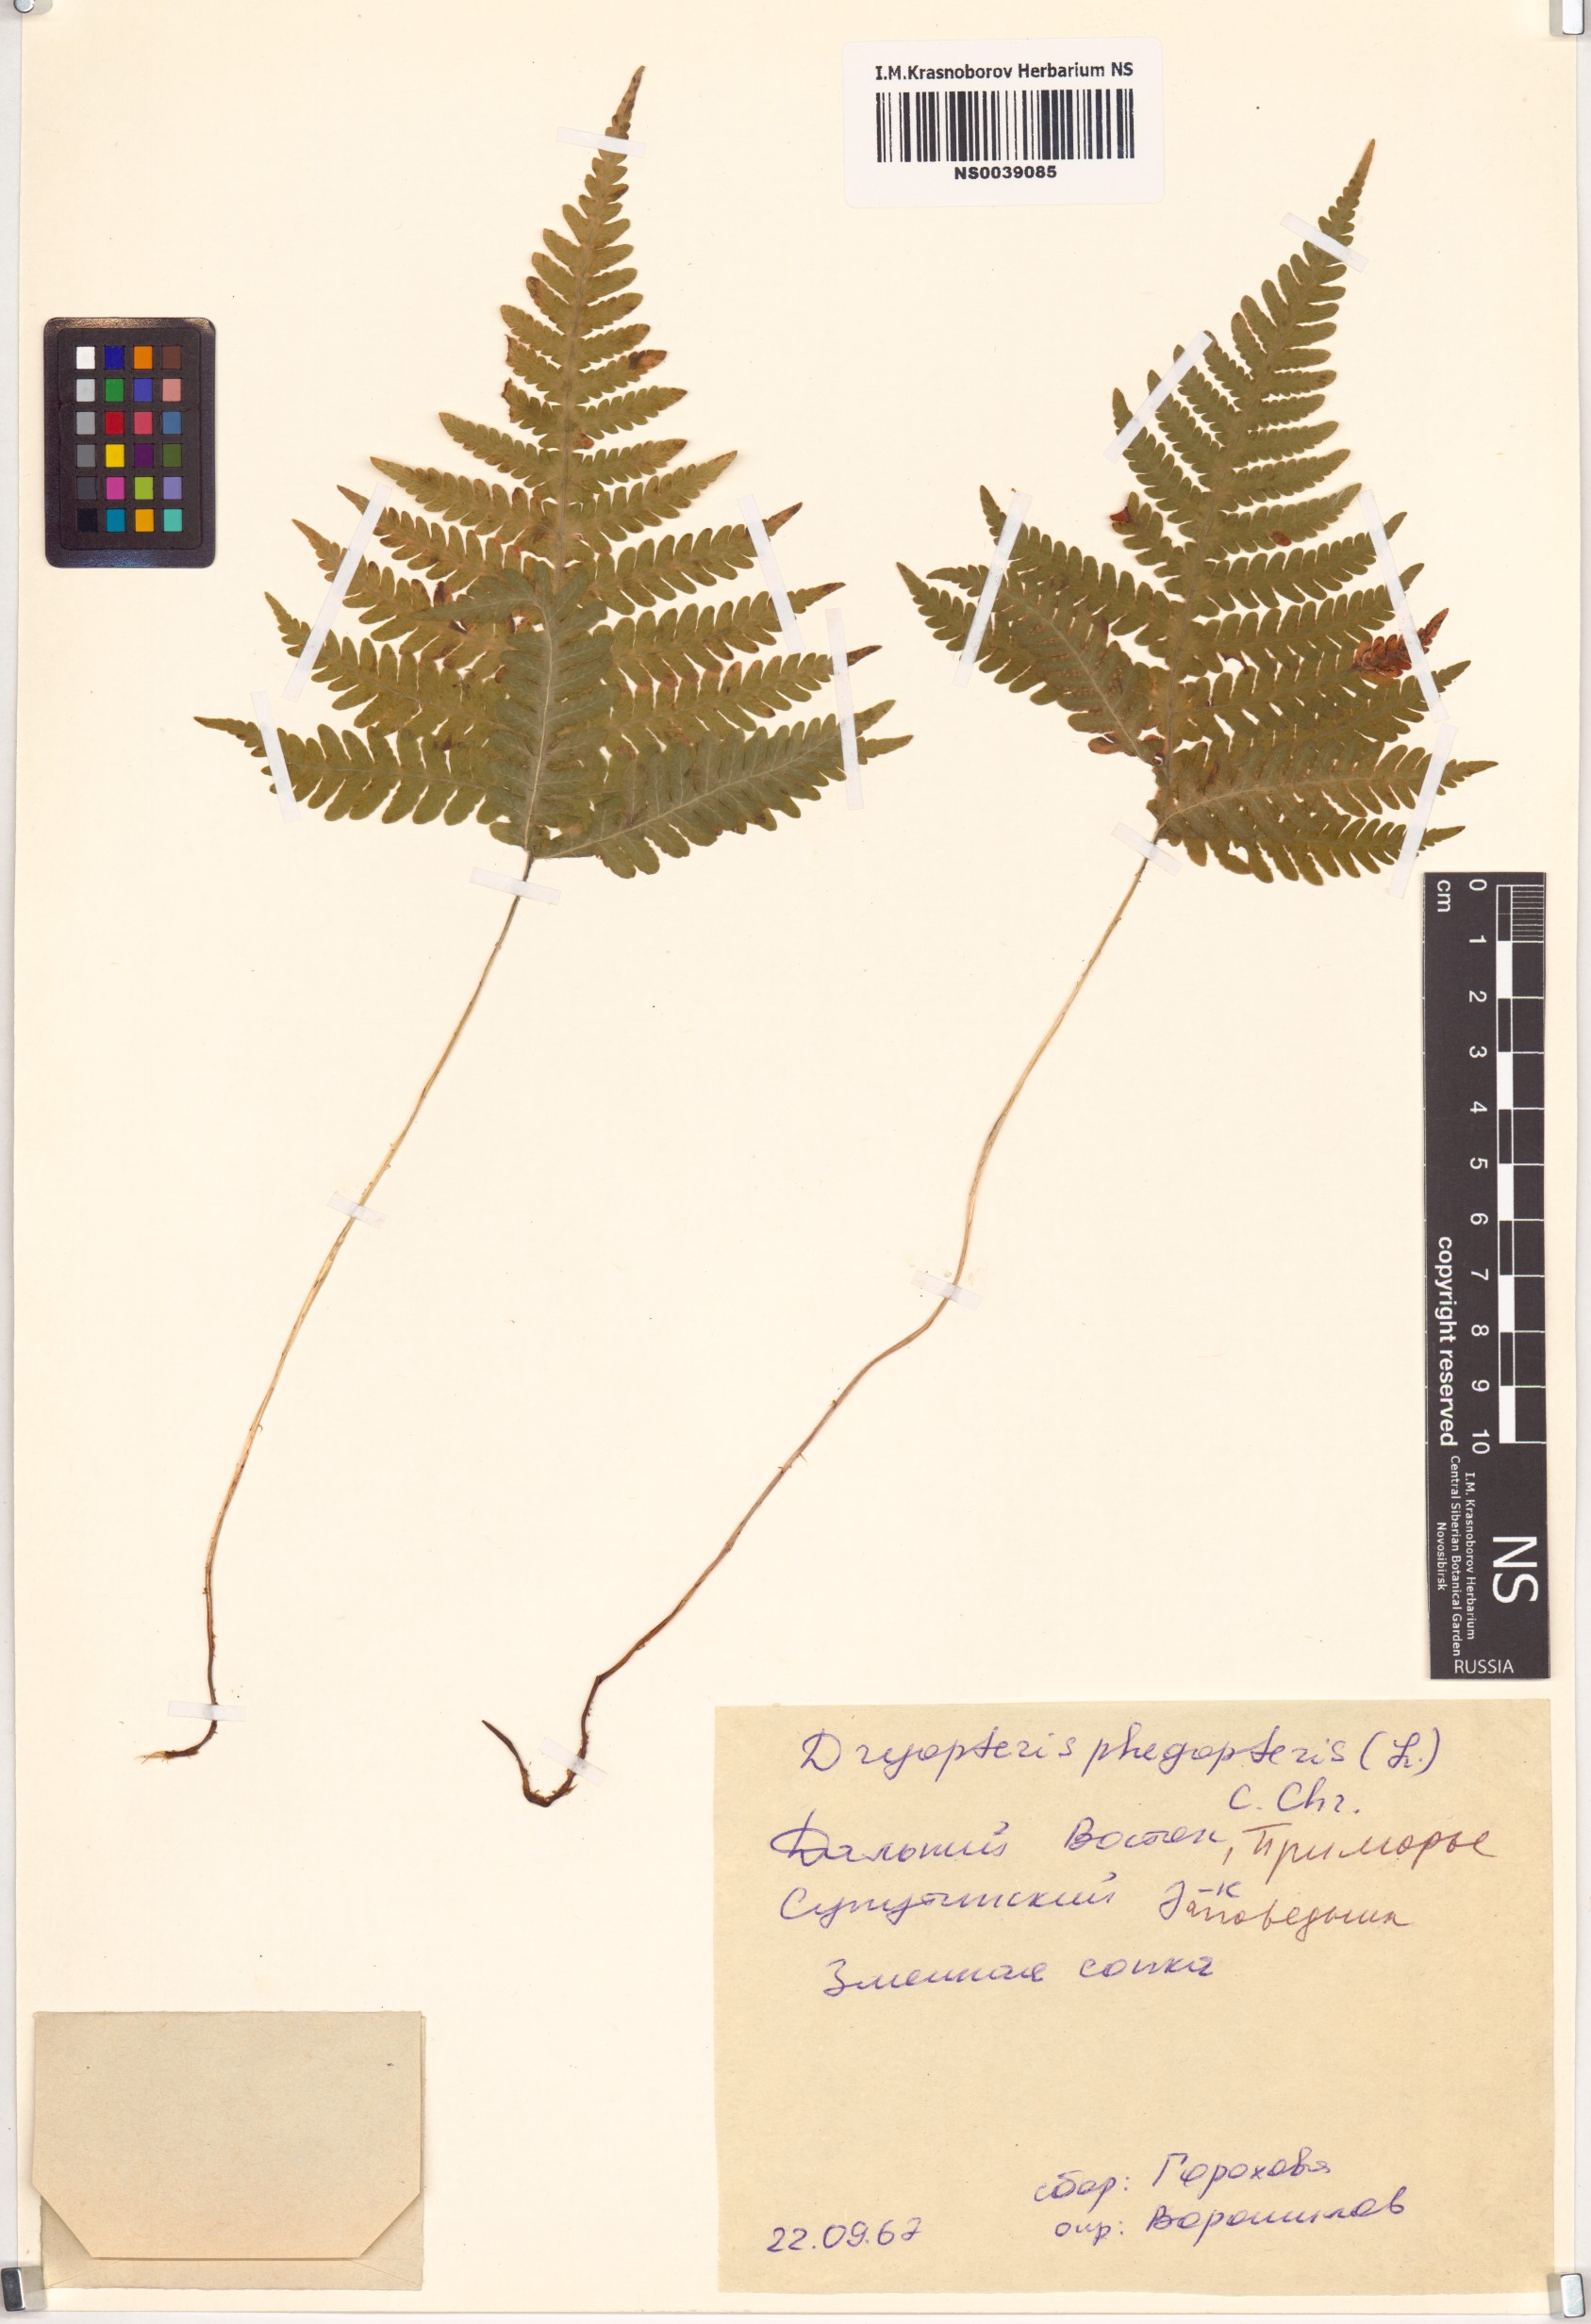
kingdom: Plantae
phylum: Tracheophyta
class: Polypodiopsida
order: Polypodiales
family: Thelypteridaceae
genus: Phegopteris
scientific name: Phegopteris connectilis
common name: Beech fern
